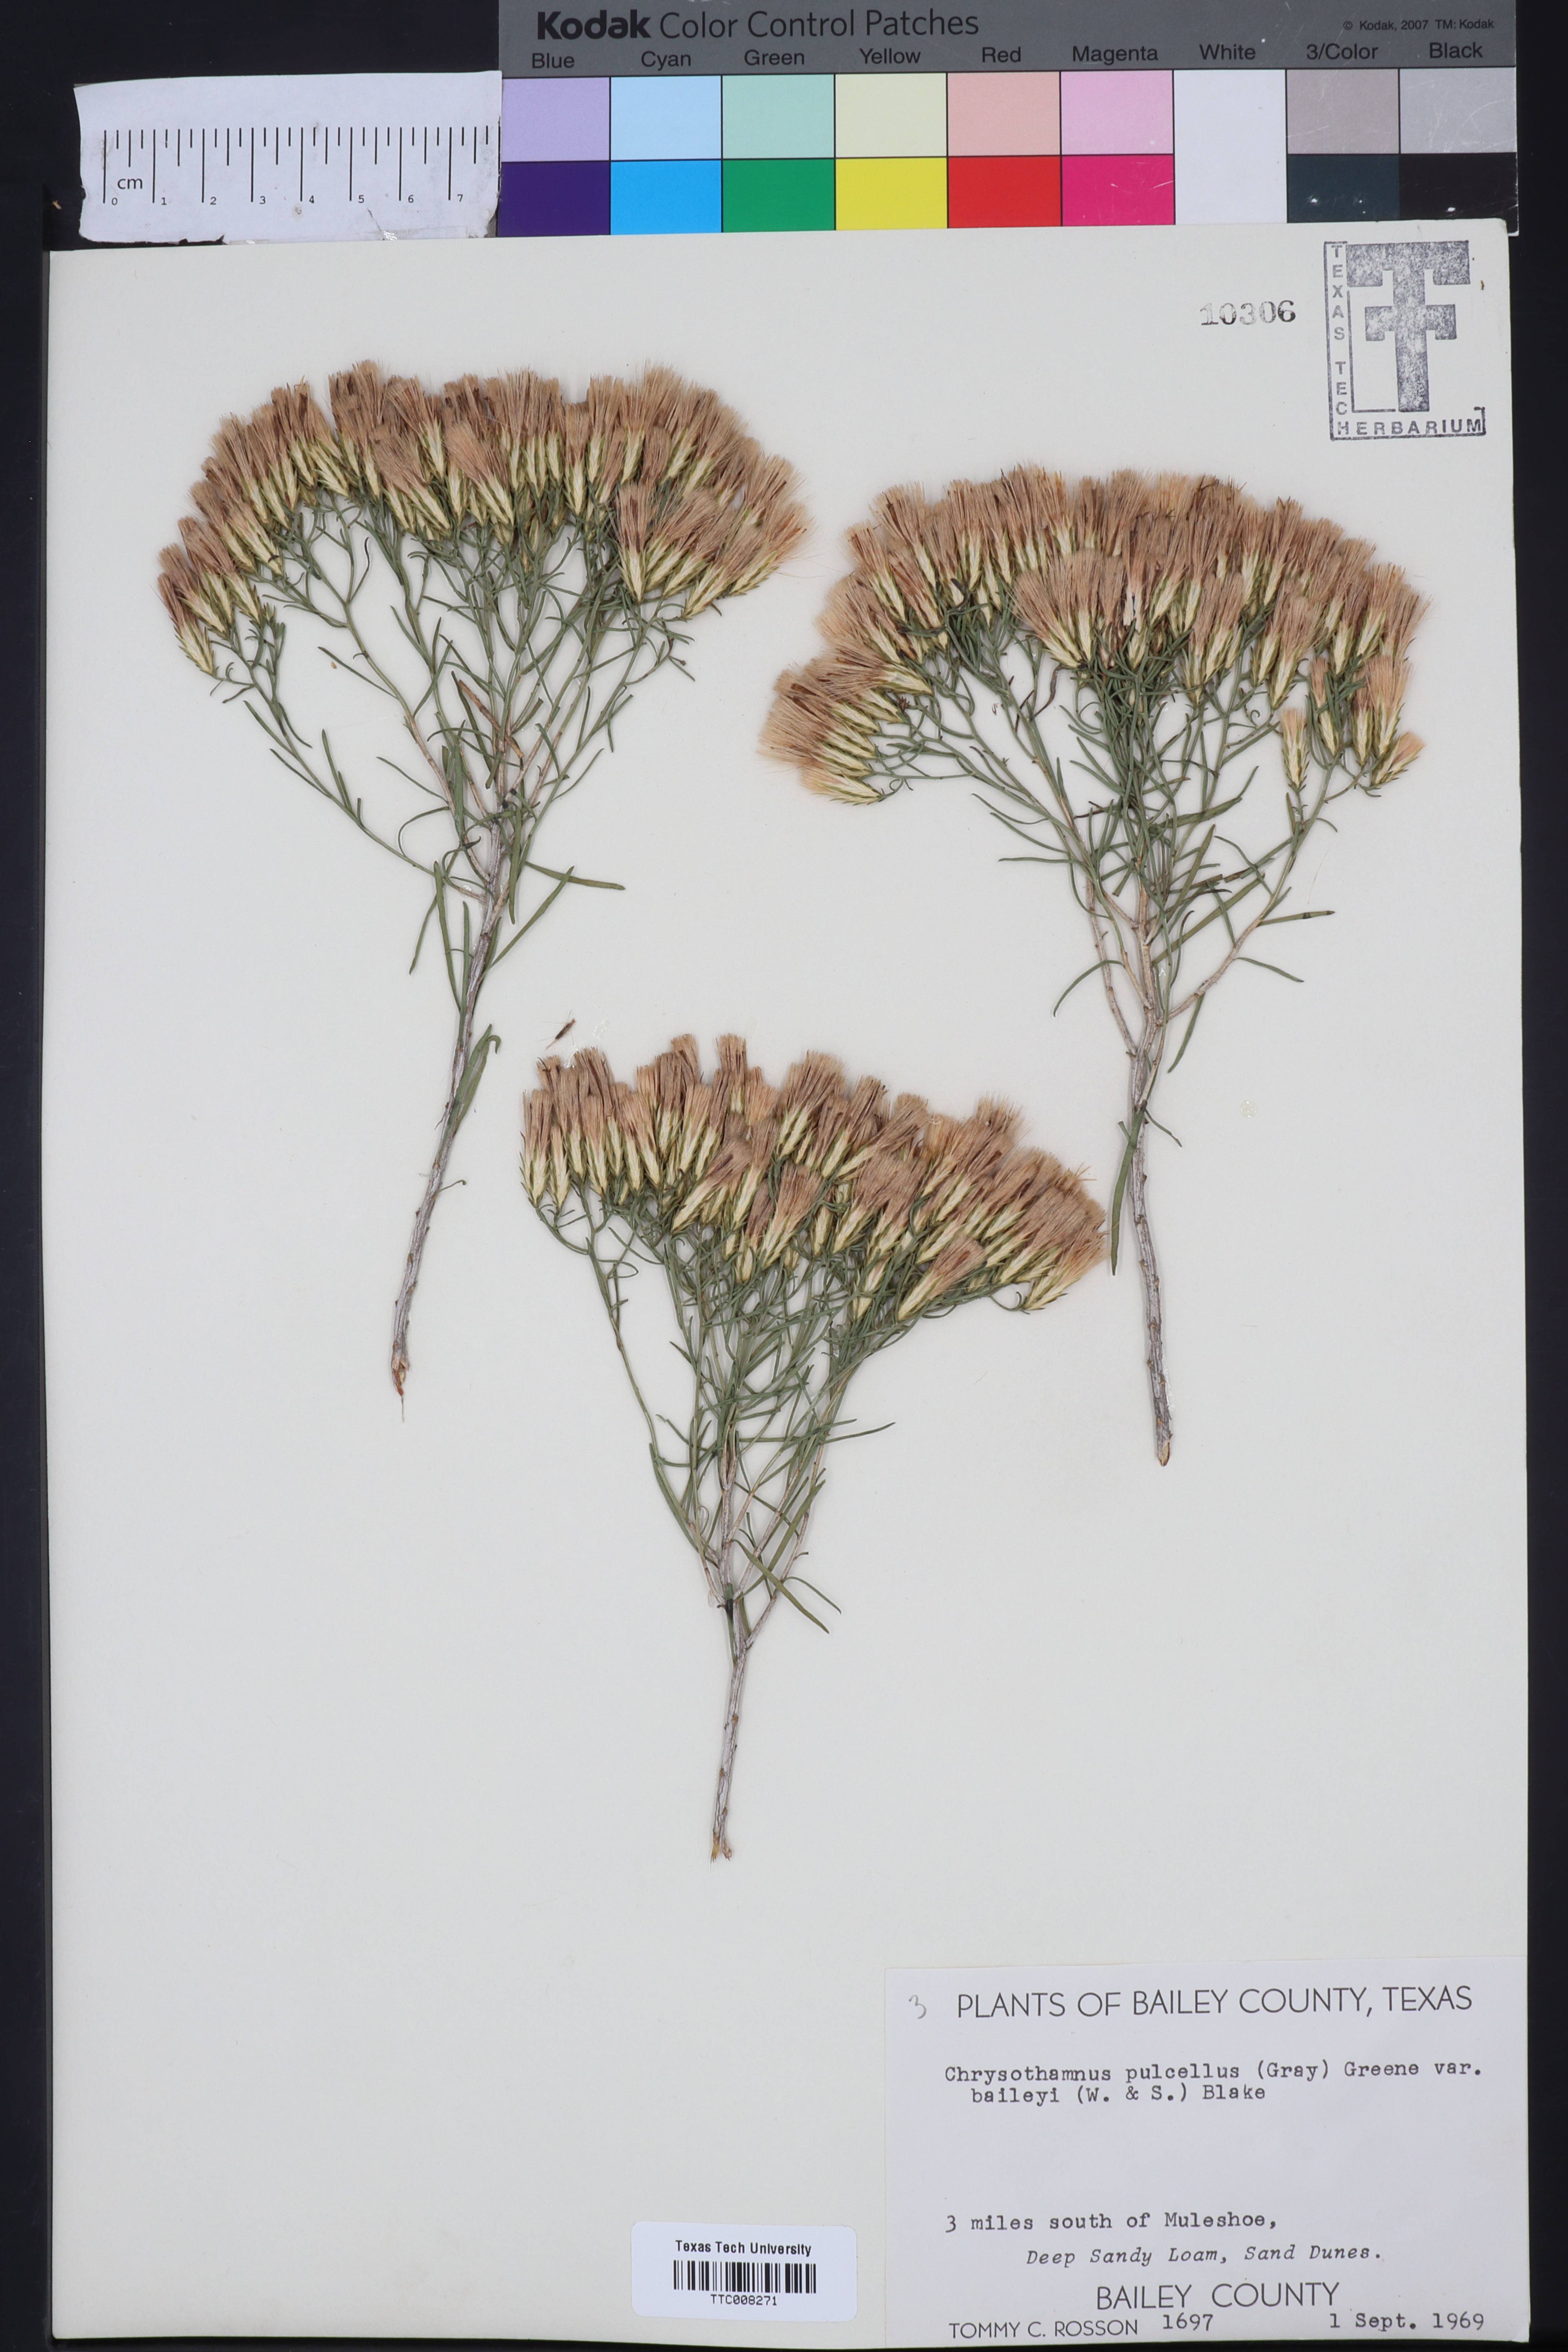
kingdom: Plantae
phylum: Tracheophyta
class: Magnoliopsida
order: Asterales
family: Asteraceae
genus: Lorandersonia
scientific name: Lorandersonia baileyi
